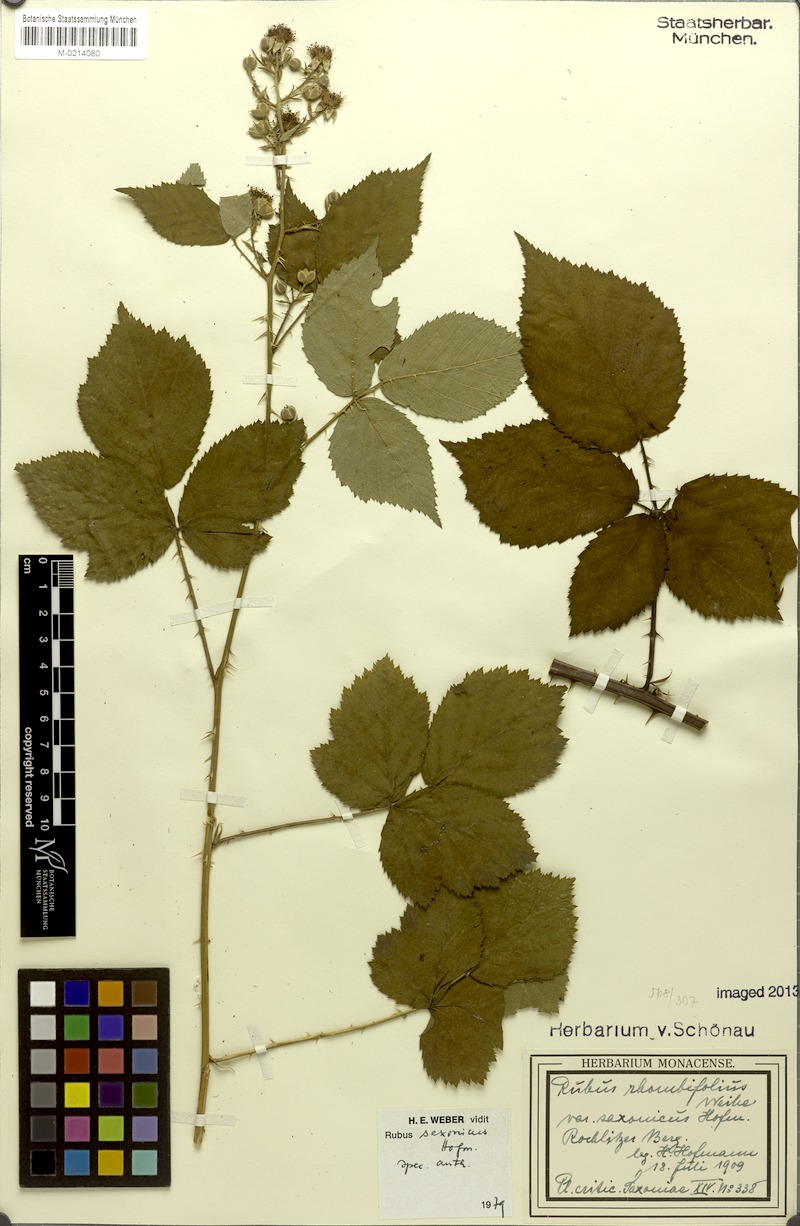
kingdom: Plantae
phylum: Tracheophyta
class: Magnoliopsida
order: Rosales
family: Rosaceae
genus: Rubus
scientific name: Rubus saxonicus
